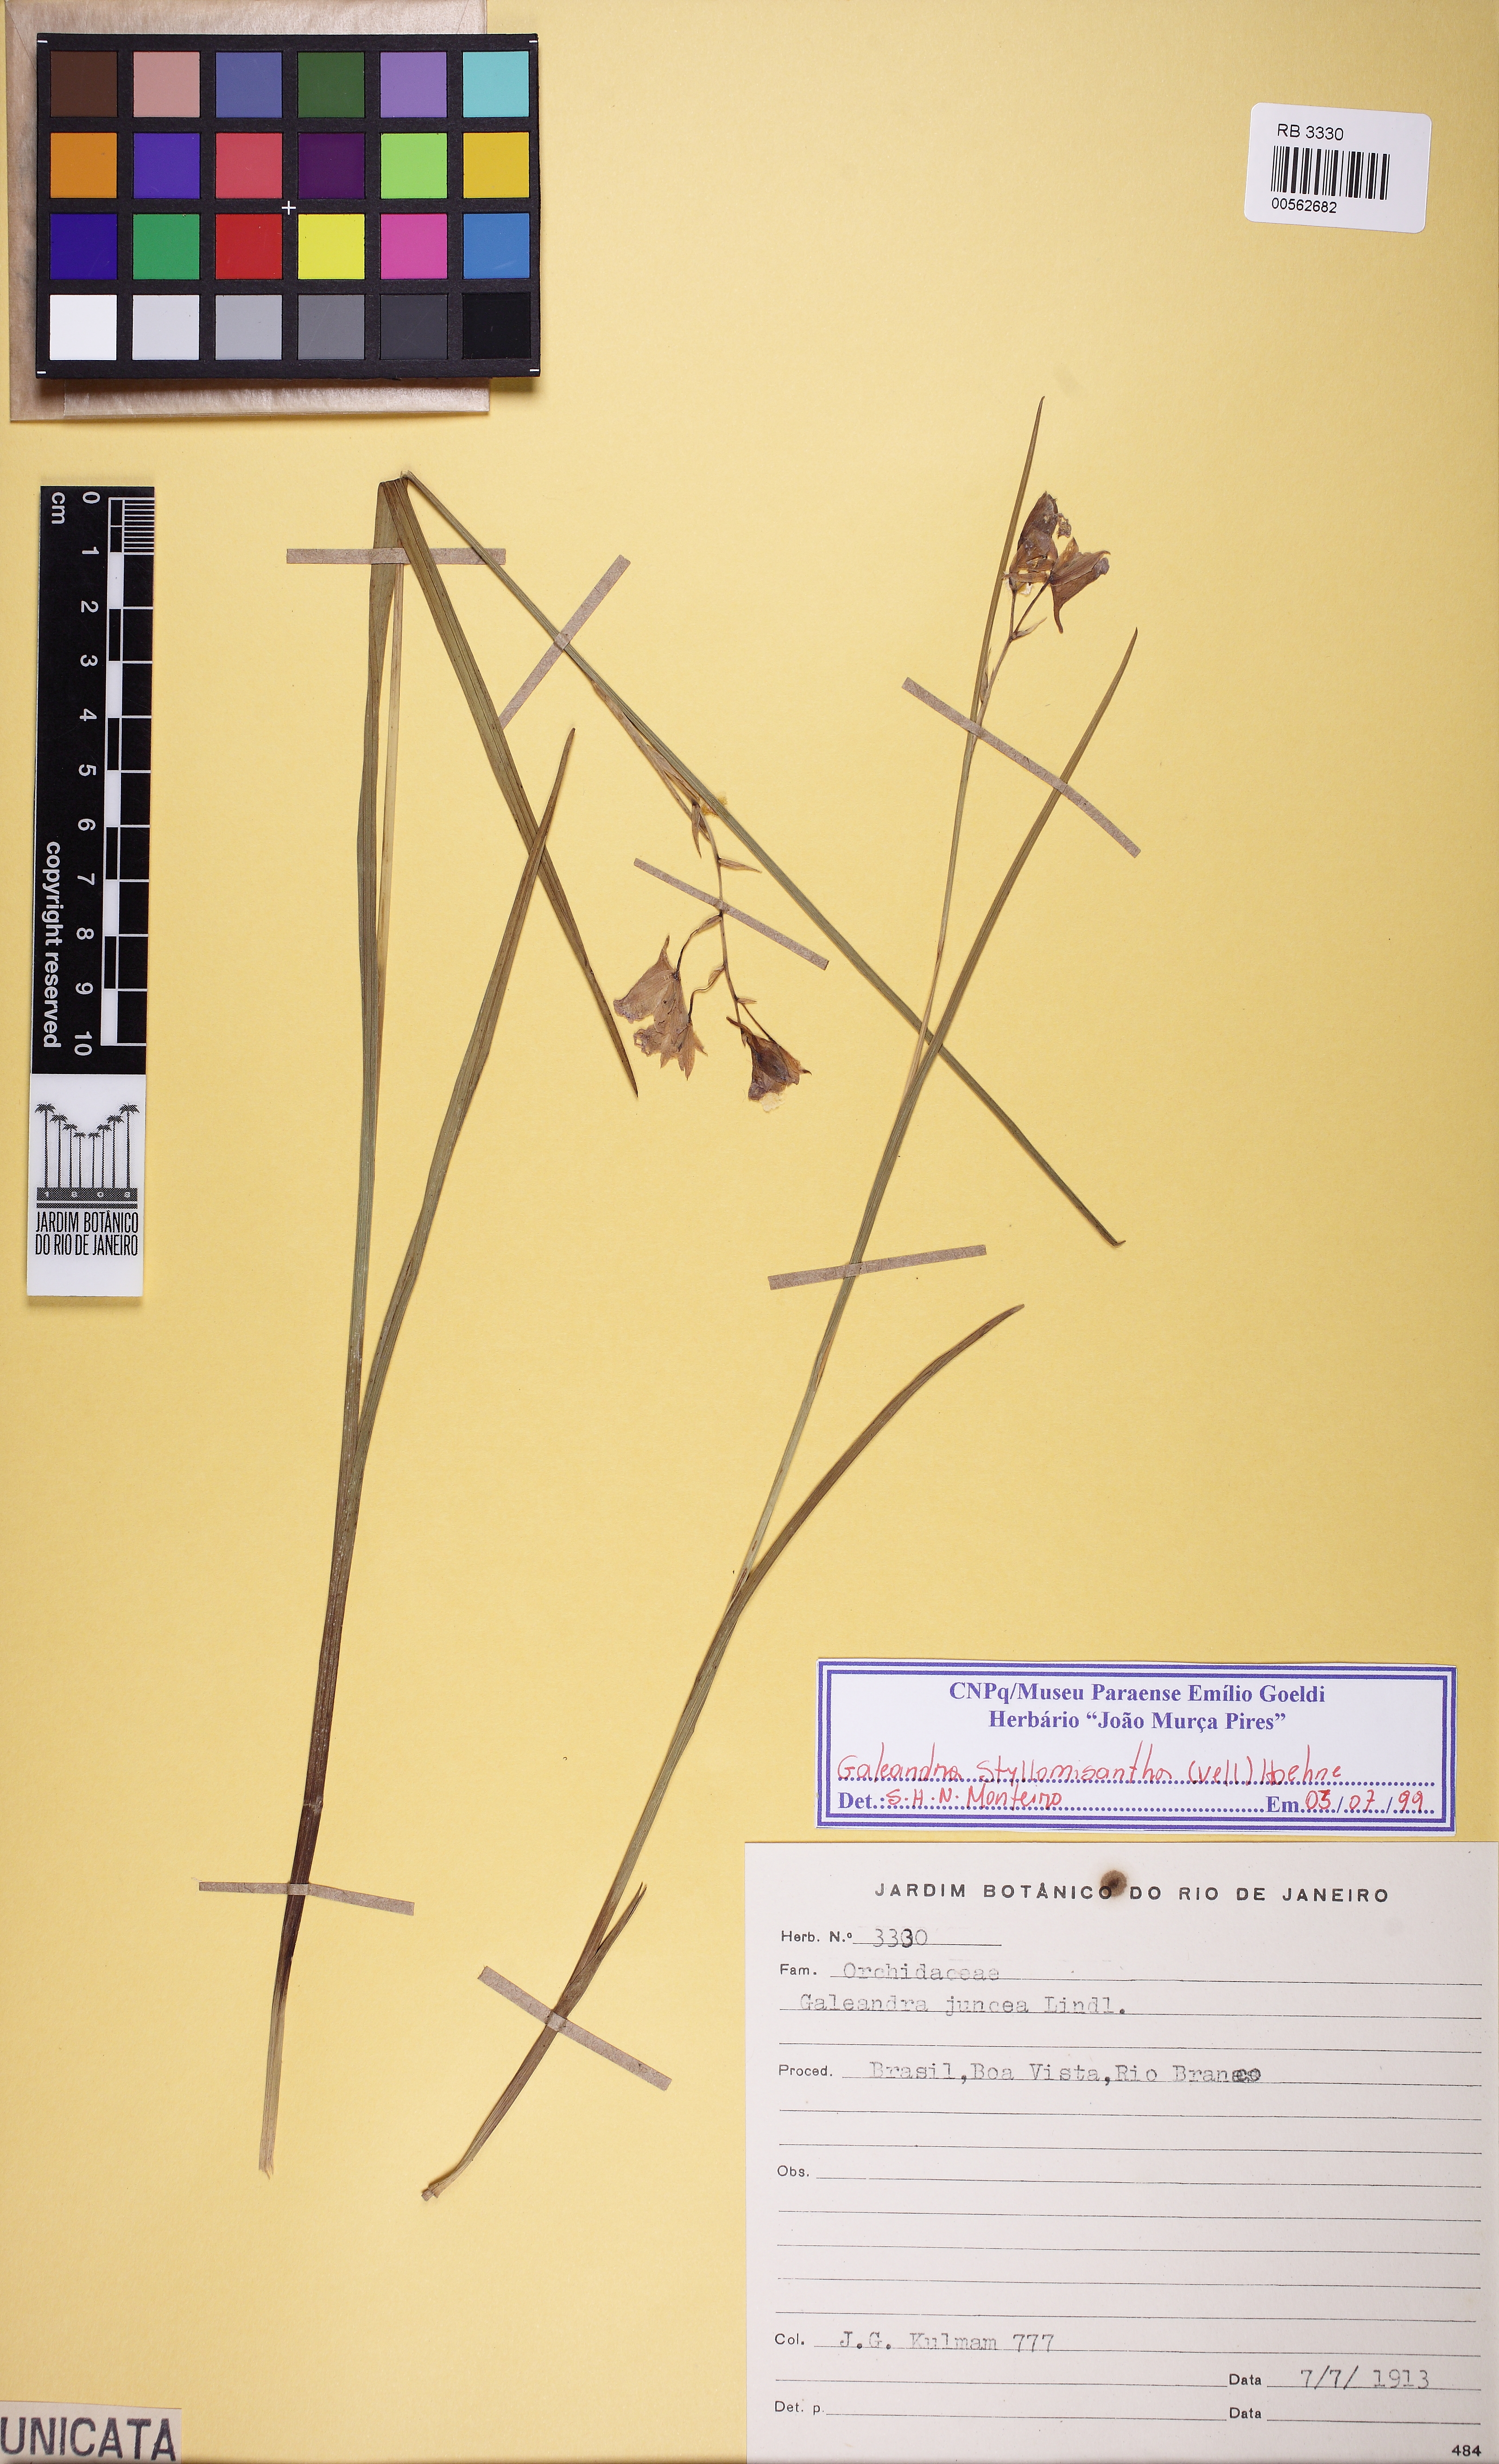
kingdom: Plantae
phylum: Tracheophyta
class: Liliopsida
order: Asparagales
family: Orchidaceae
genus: Galeandra
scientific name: Galeandra styllomisantha
